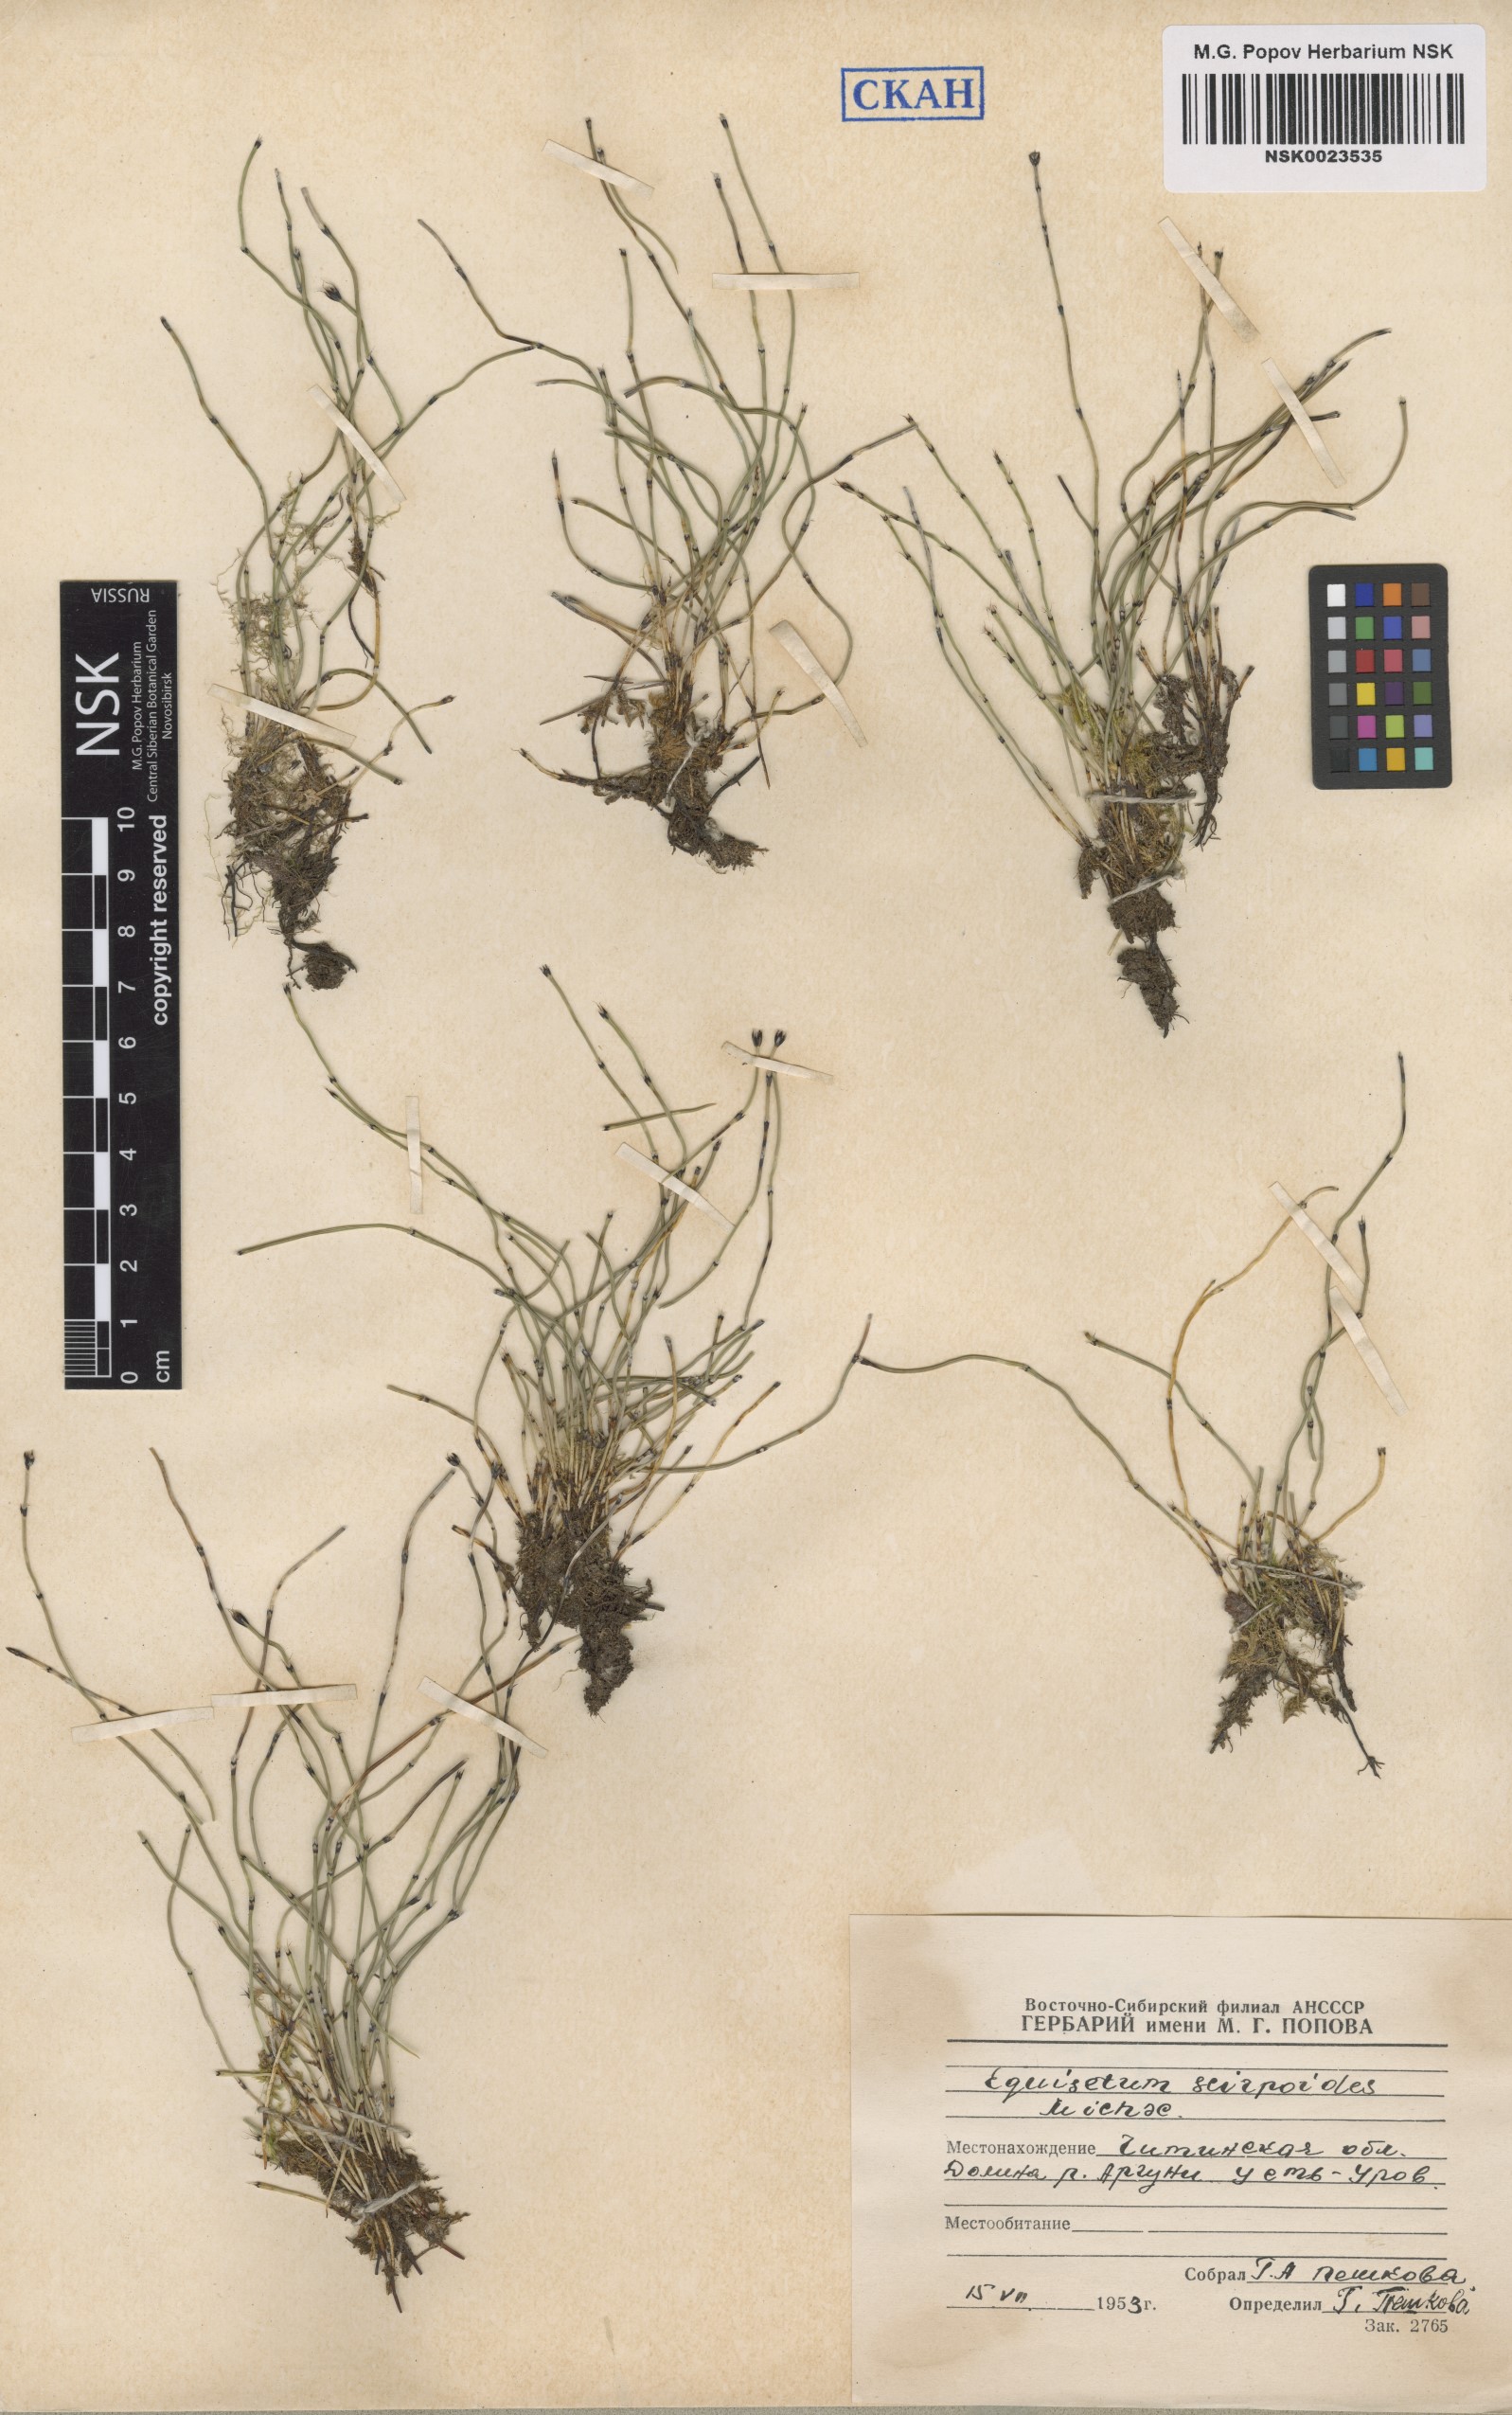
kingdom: Plantae
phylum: Tracheophyta
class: Polypodiopsida
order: Equisetales
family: Equisetaceae
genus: Equisetum
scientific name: Equisetum scirpoides
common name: Delicate horsetail
